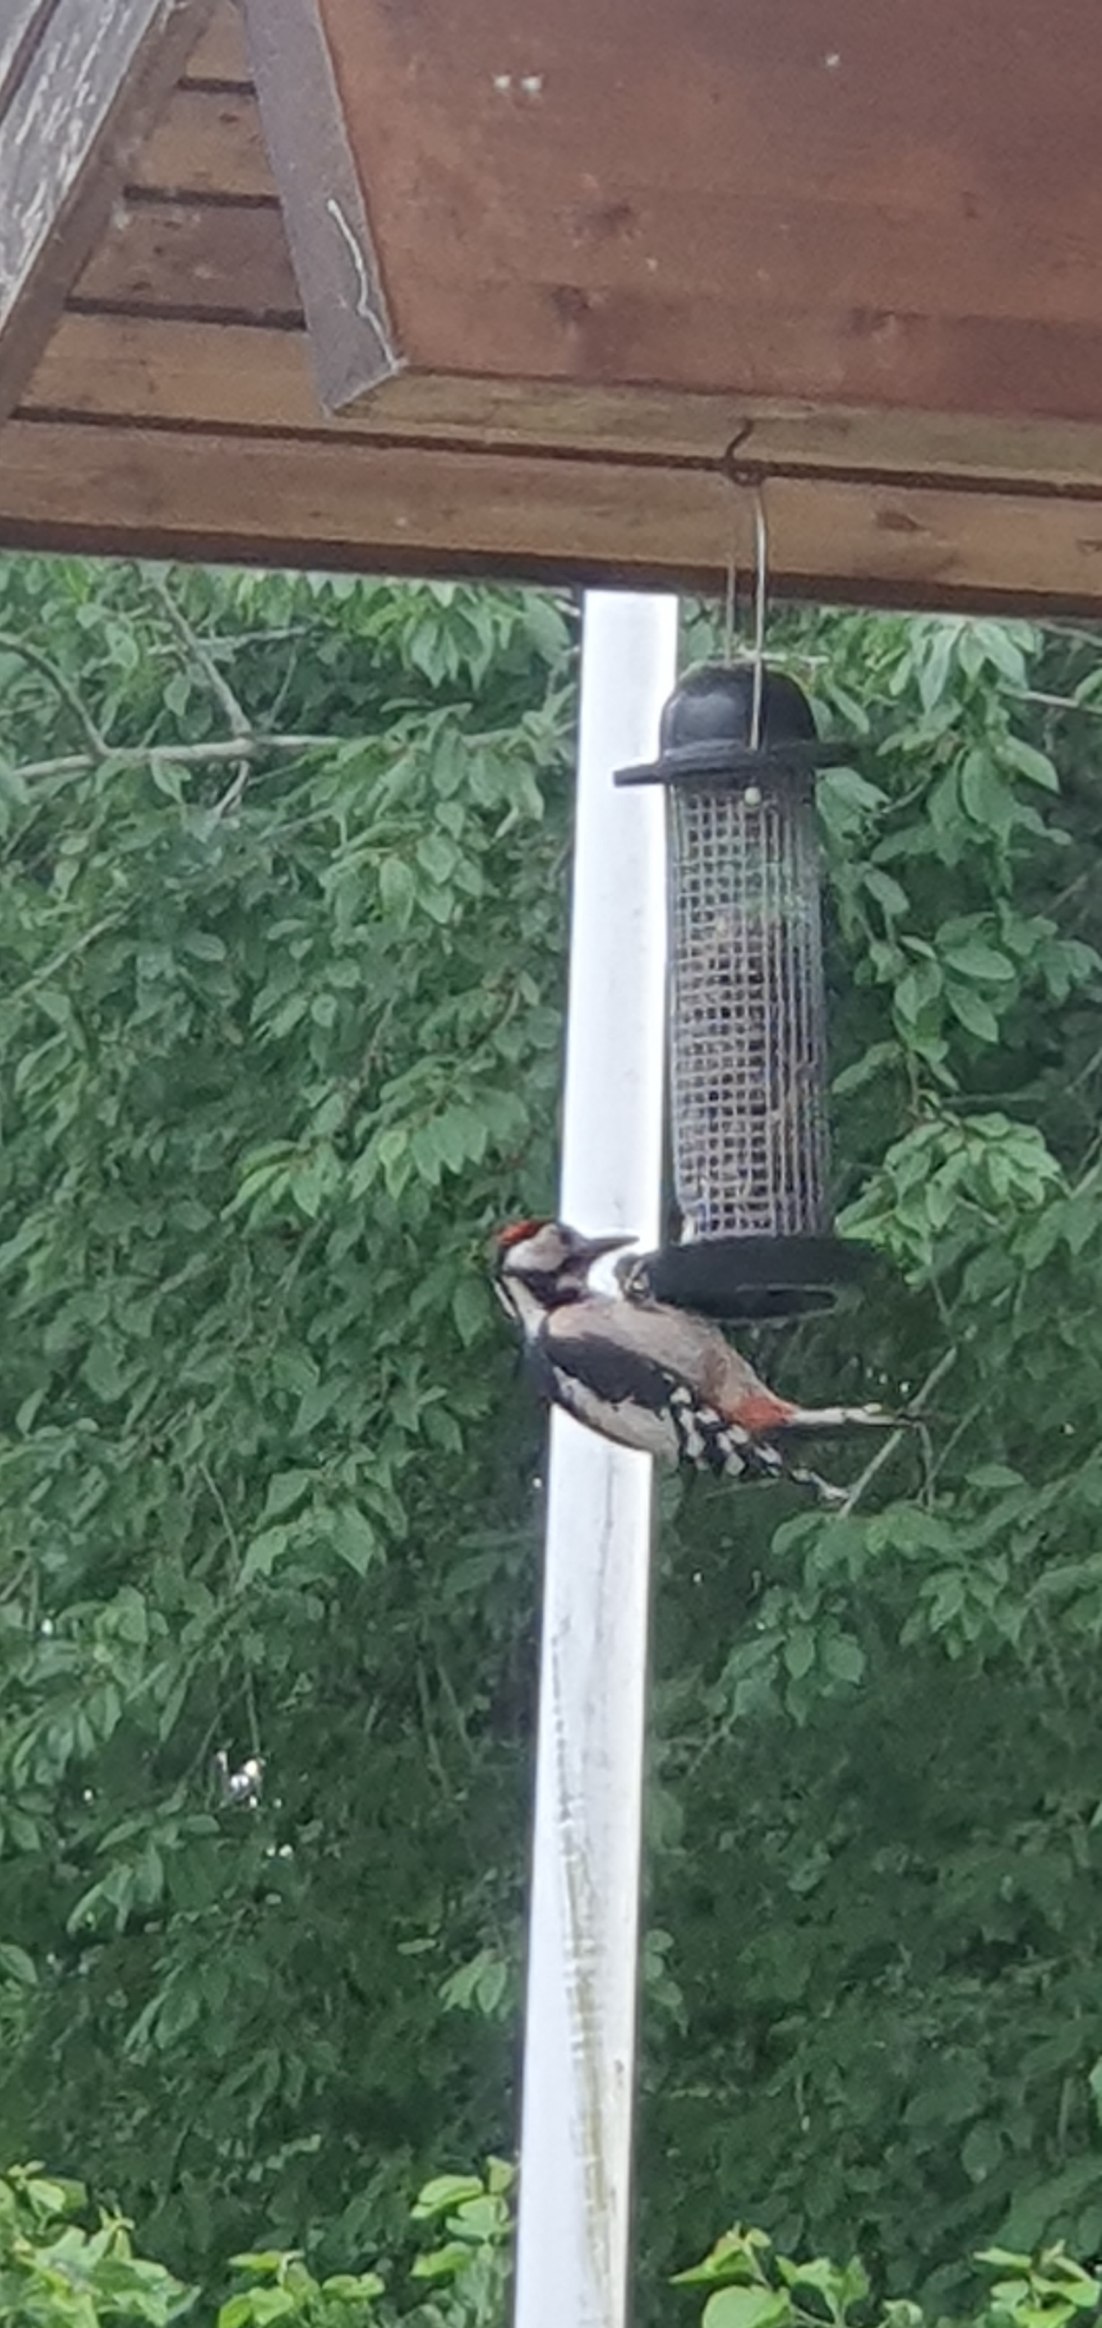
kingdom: Animalia
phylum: Chordata
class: Aves
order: Piciformes
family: Picidae
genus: Dendrocopos
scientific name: Dendrocopos major
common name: Stor flagspætte
